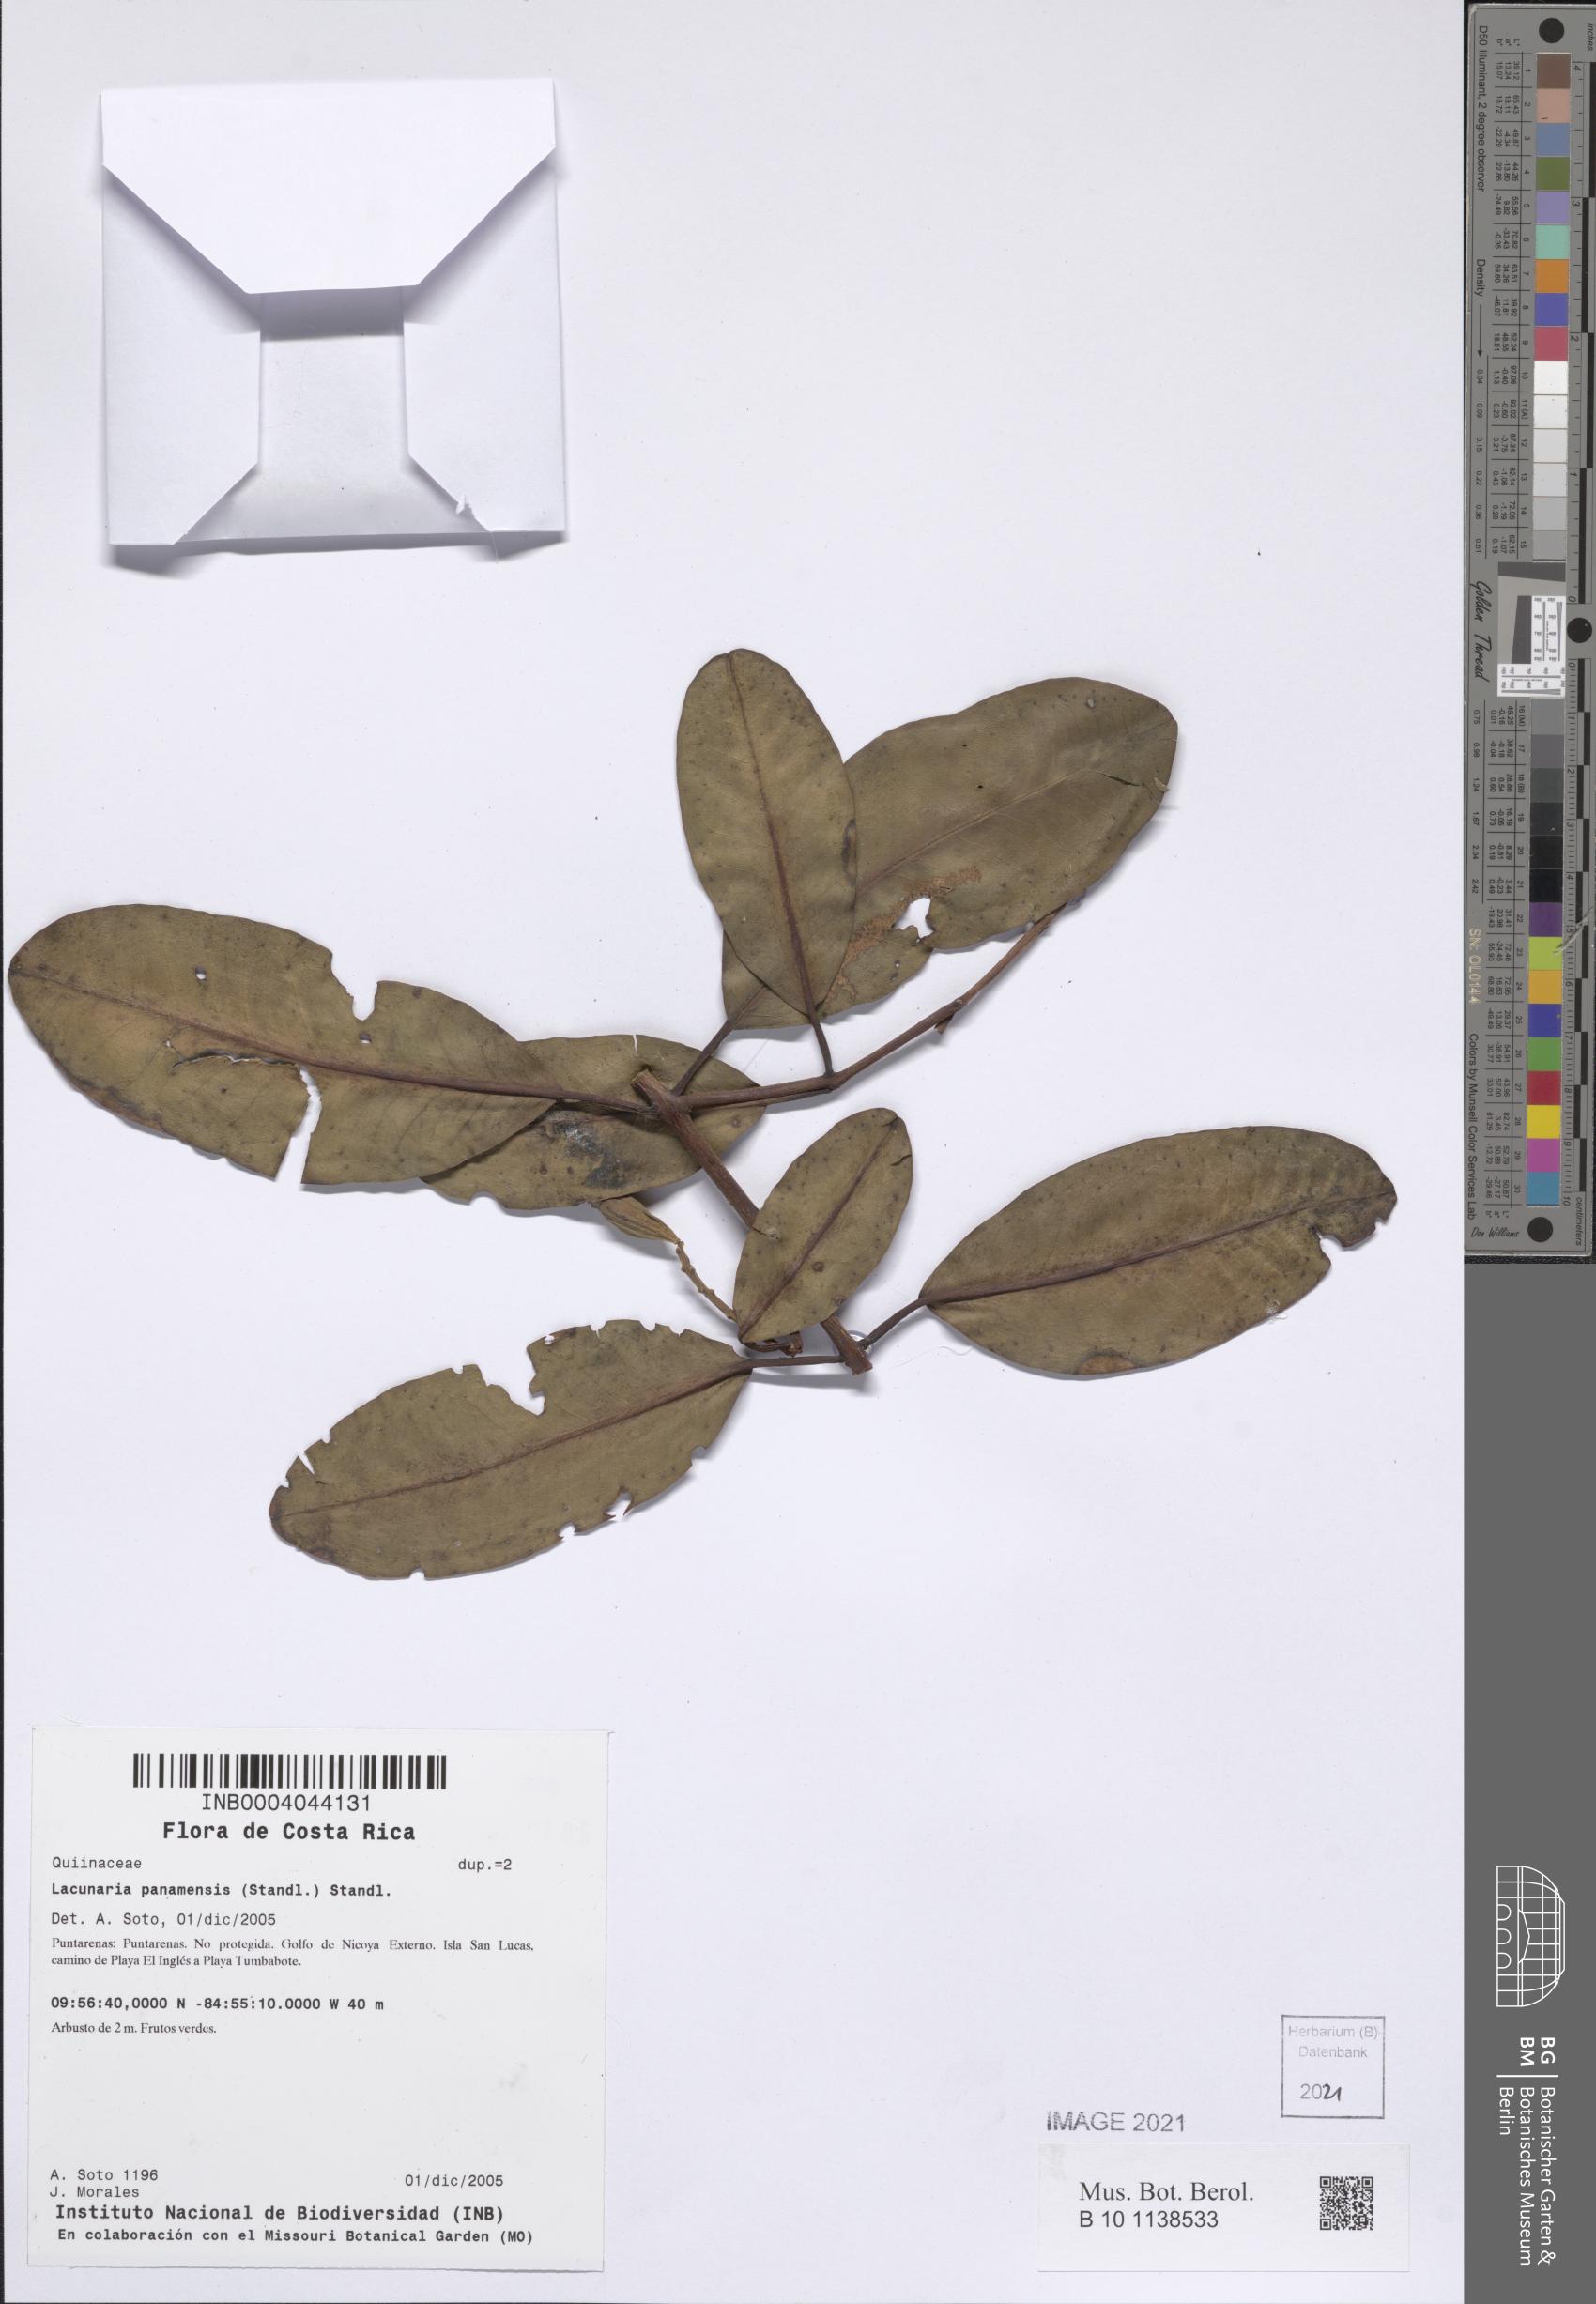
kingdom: Plantae
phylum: Tracheophyta
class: Magnoliopsida
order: Malpighiales
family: Quiinaceae
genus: Lacunaria
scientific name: Lacunaria crenata
